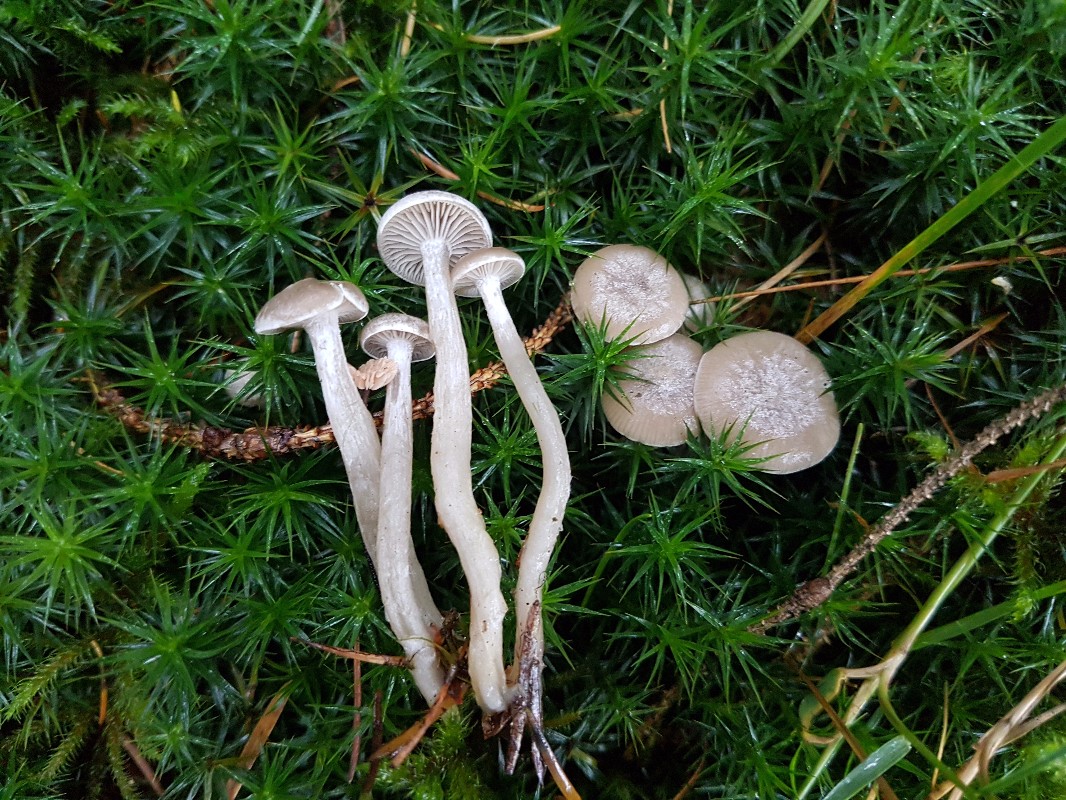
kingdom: Fungi
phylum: Basidiomycota
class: Agaricomycetes
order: Agaricales
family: Tricholomataceae
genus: Clitocybe
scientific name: Clitocybe vibecina
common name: randstribet tragthat
